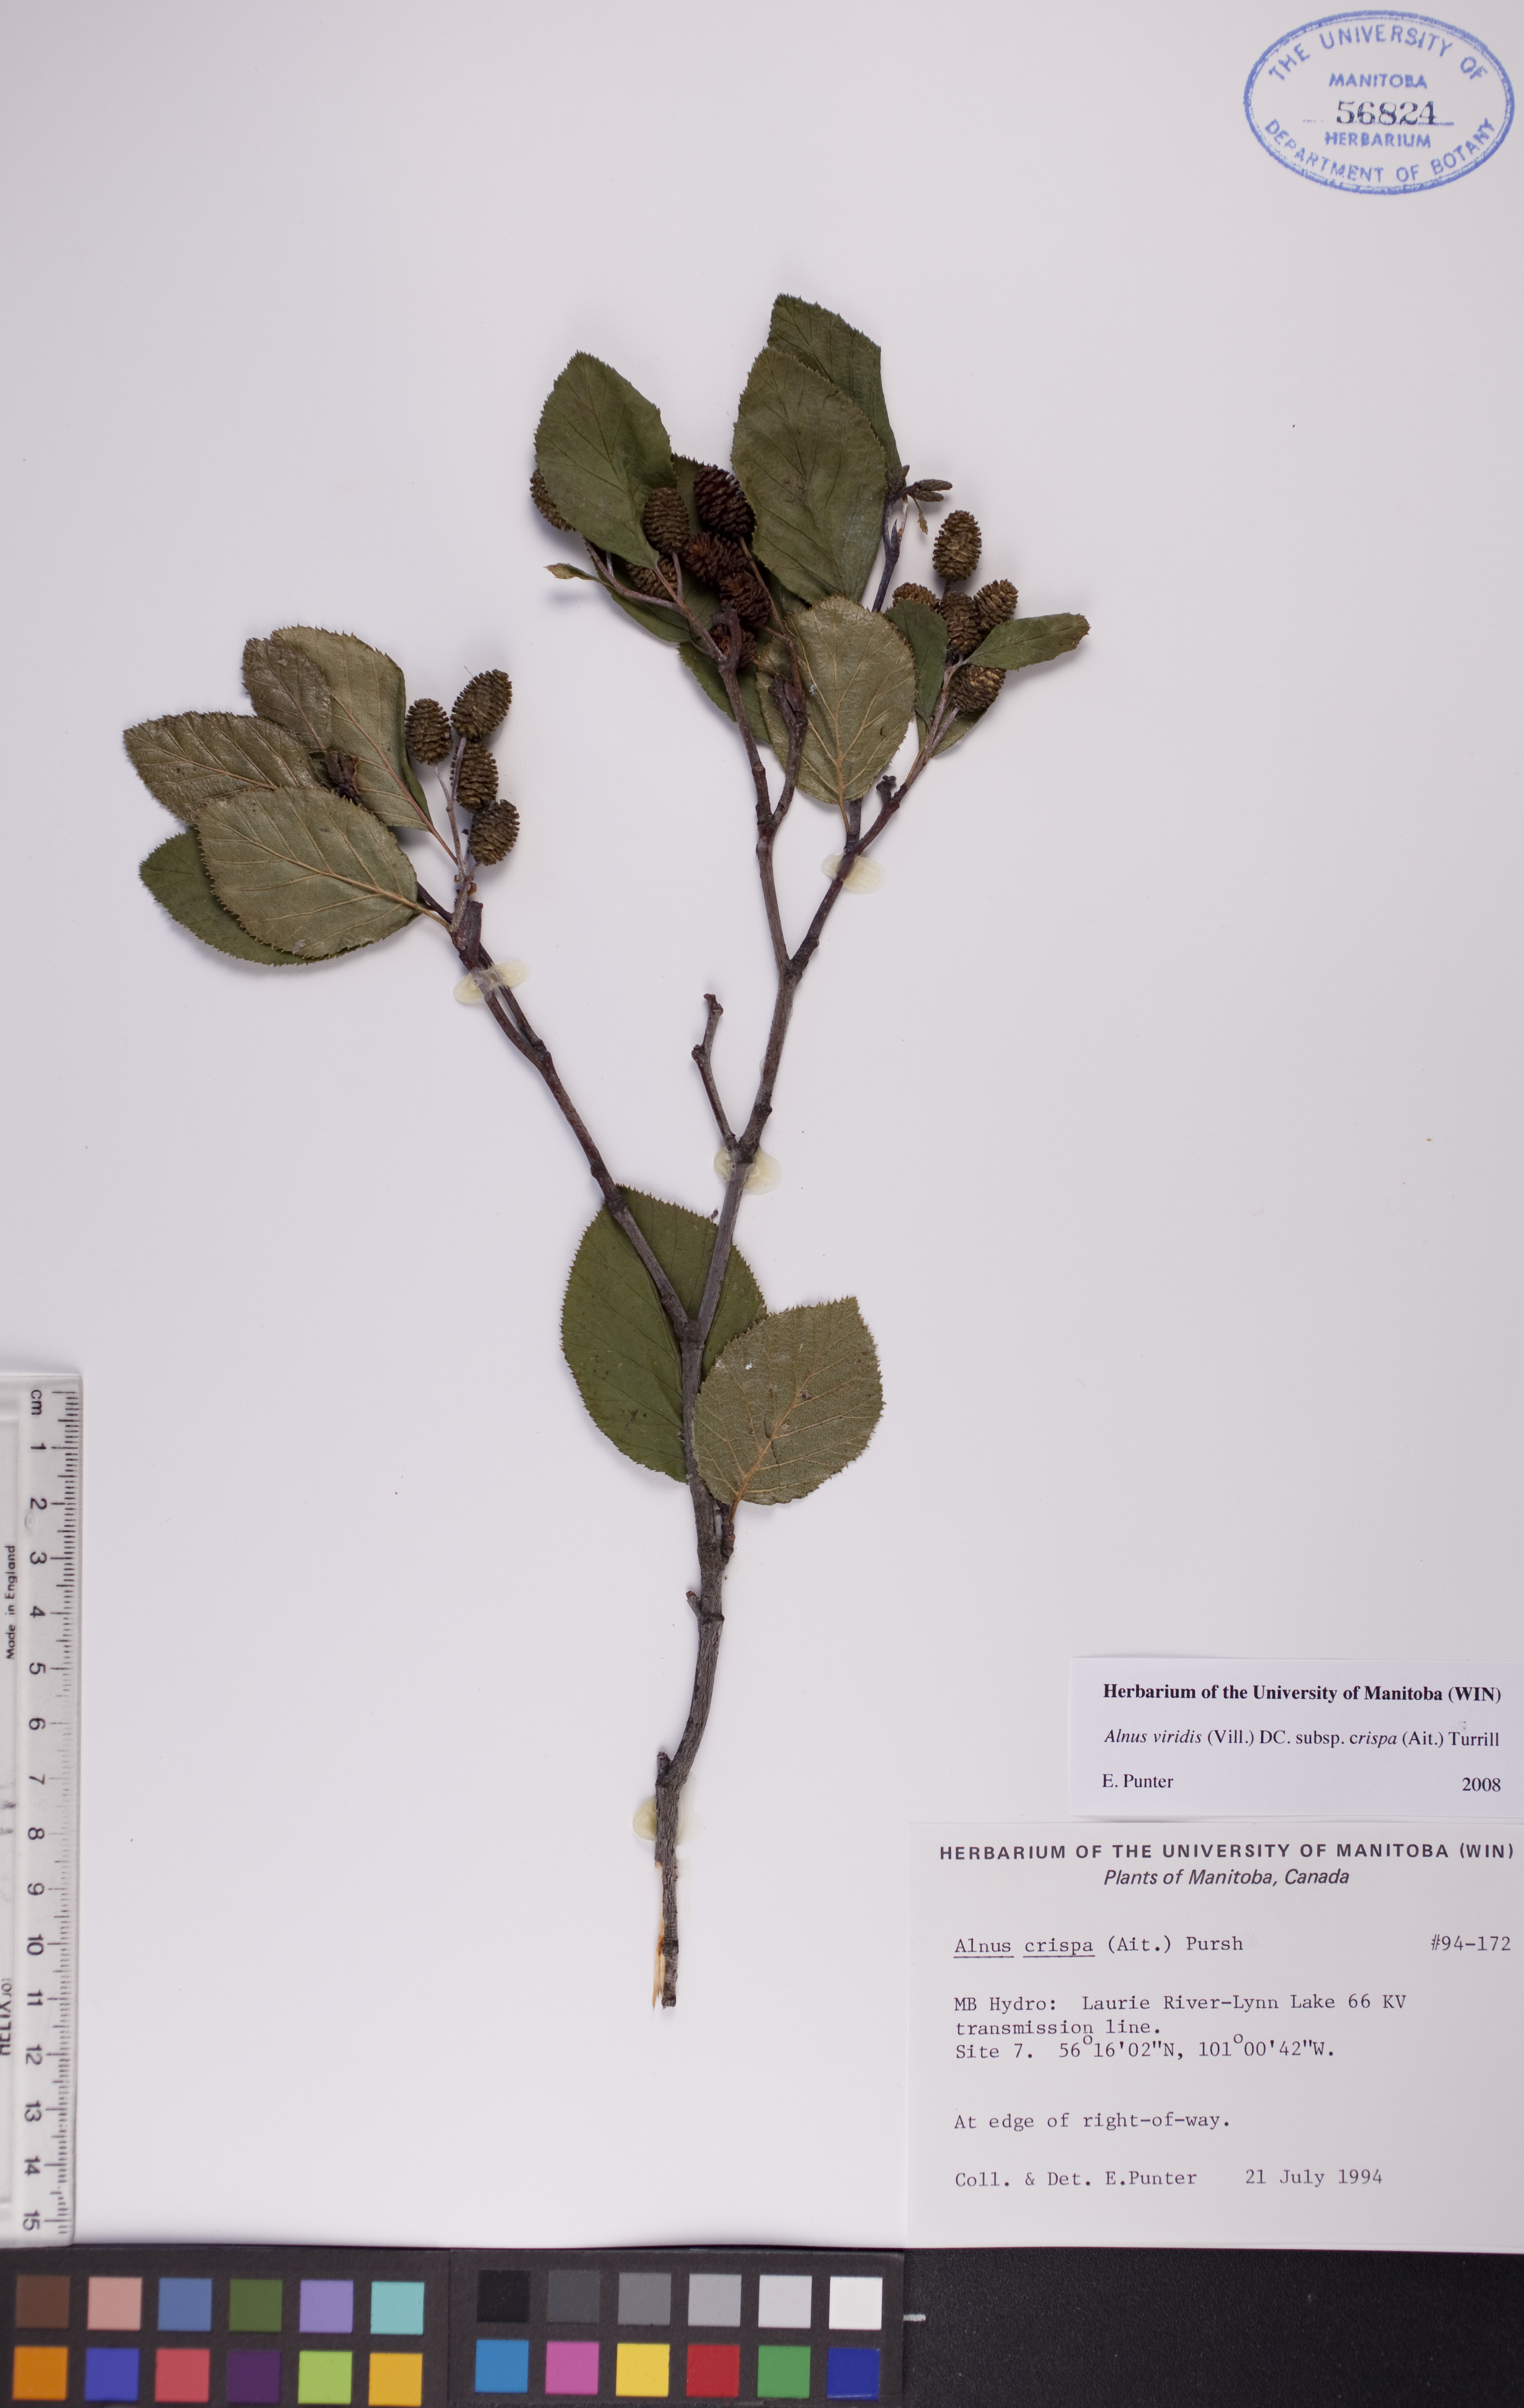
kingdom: Plantae
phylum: Tracheophyta
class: Magnoliopsida
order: Fagales
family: Betulaceae
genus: Alnus
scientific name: Alnus alnobetula
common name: Green alder
